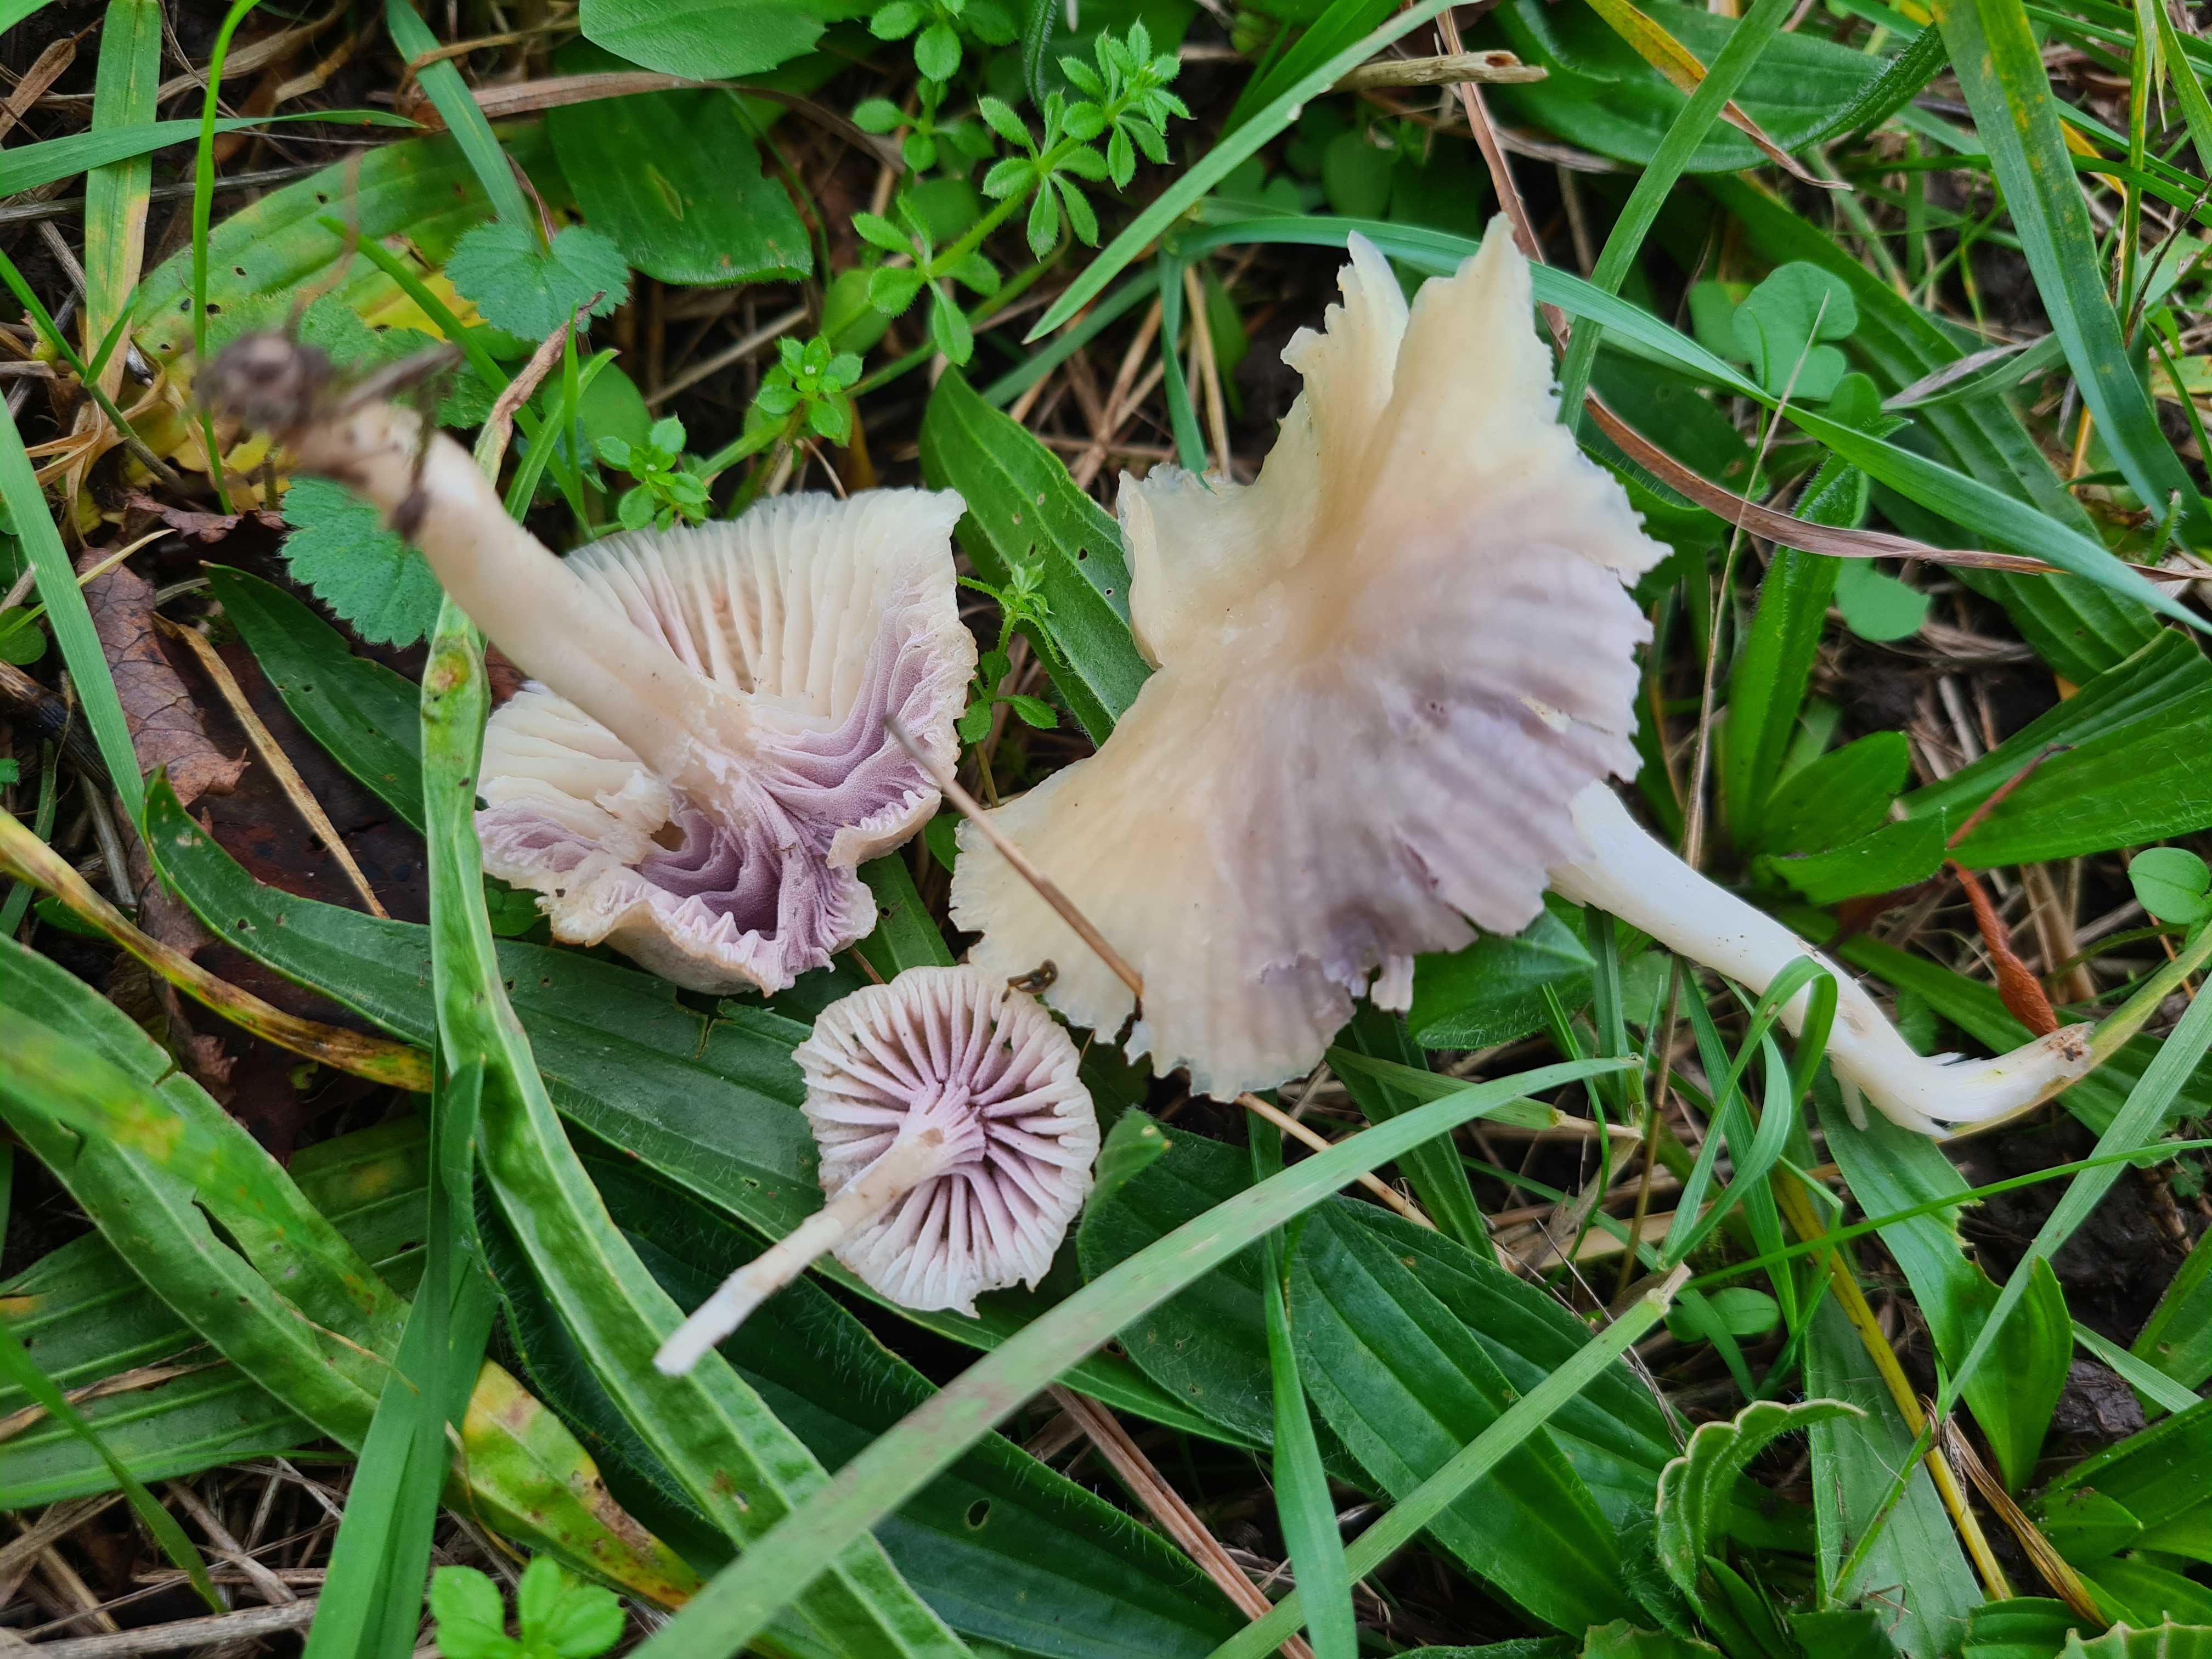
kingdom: Fungi
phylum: Basidiomycota
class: Agaricomycetes
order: Agaricales
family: Hygrophoraceae
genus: Cuphophyllus
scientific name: Cuphophyllus virgineus
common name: snehvid vokshat
